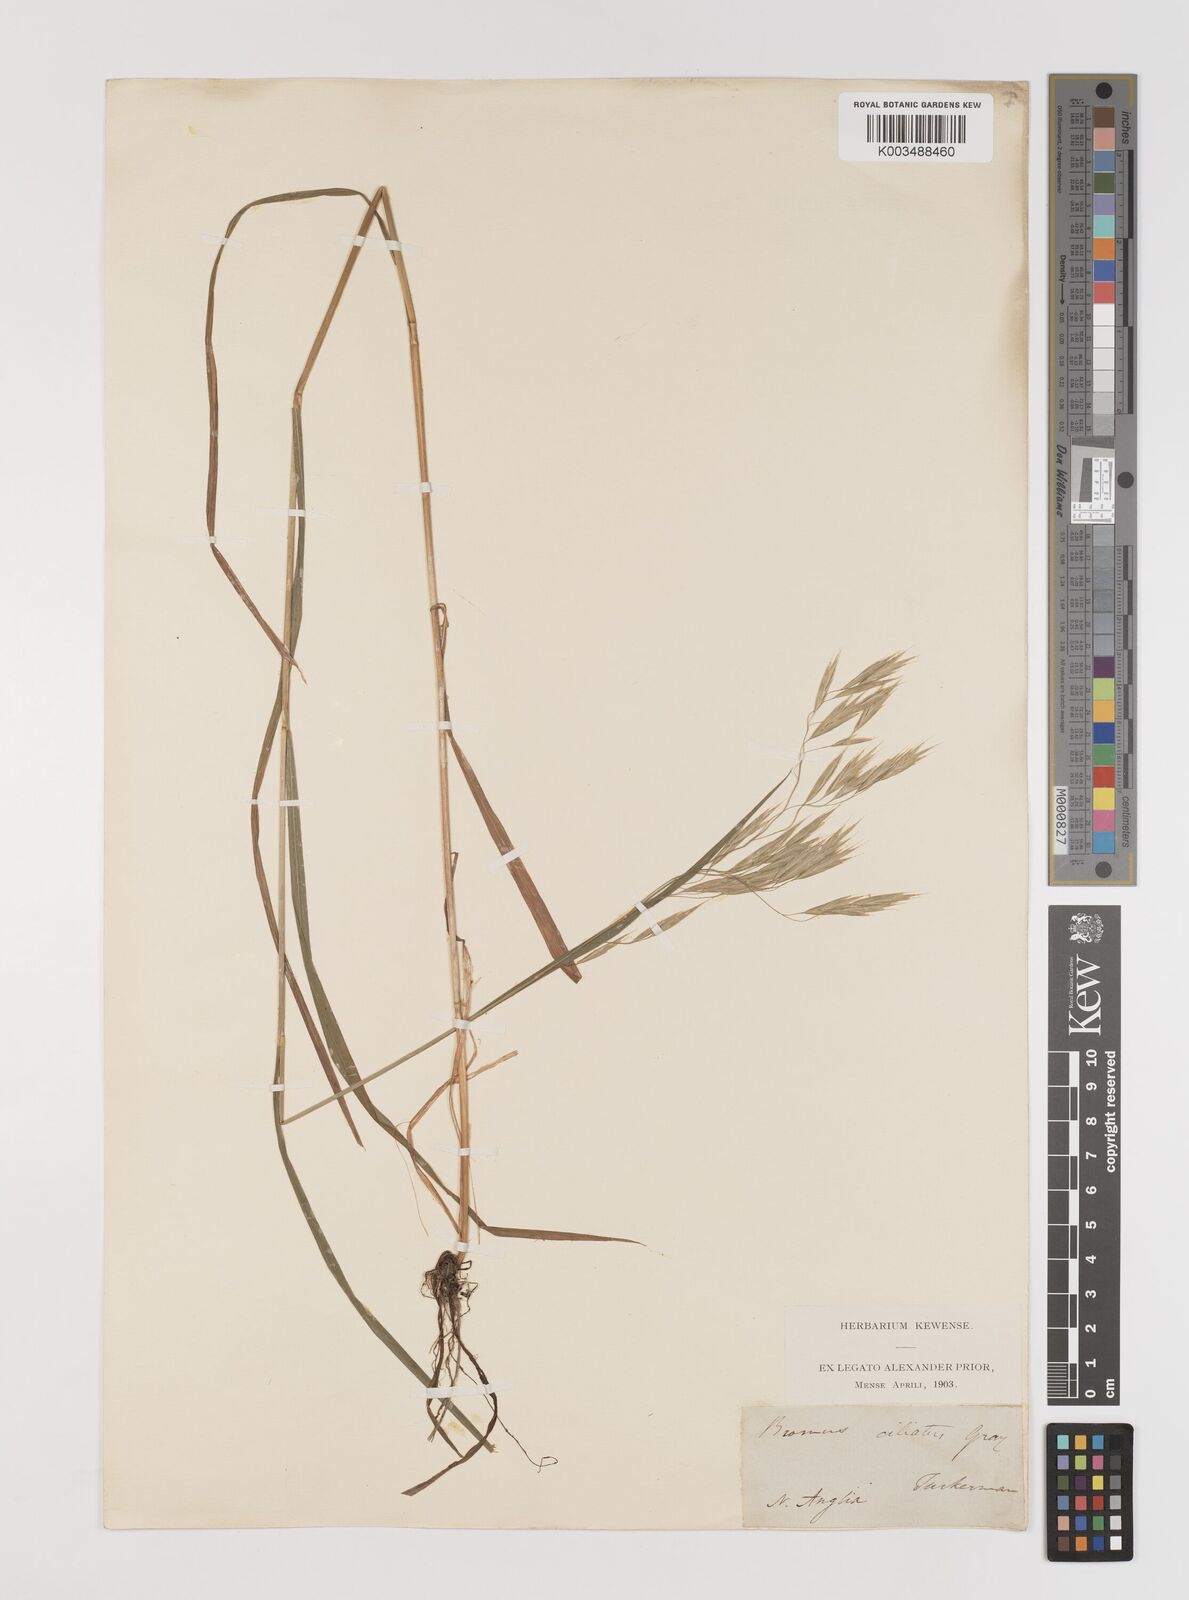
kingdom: Plantae
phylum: Tracheophyta
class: Liliopsida
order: Poales
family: Poaceae
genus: Bromus
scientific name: Bromus ciliatus
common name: Fringe brome
